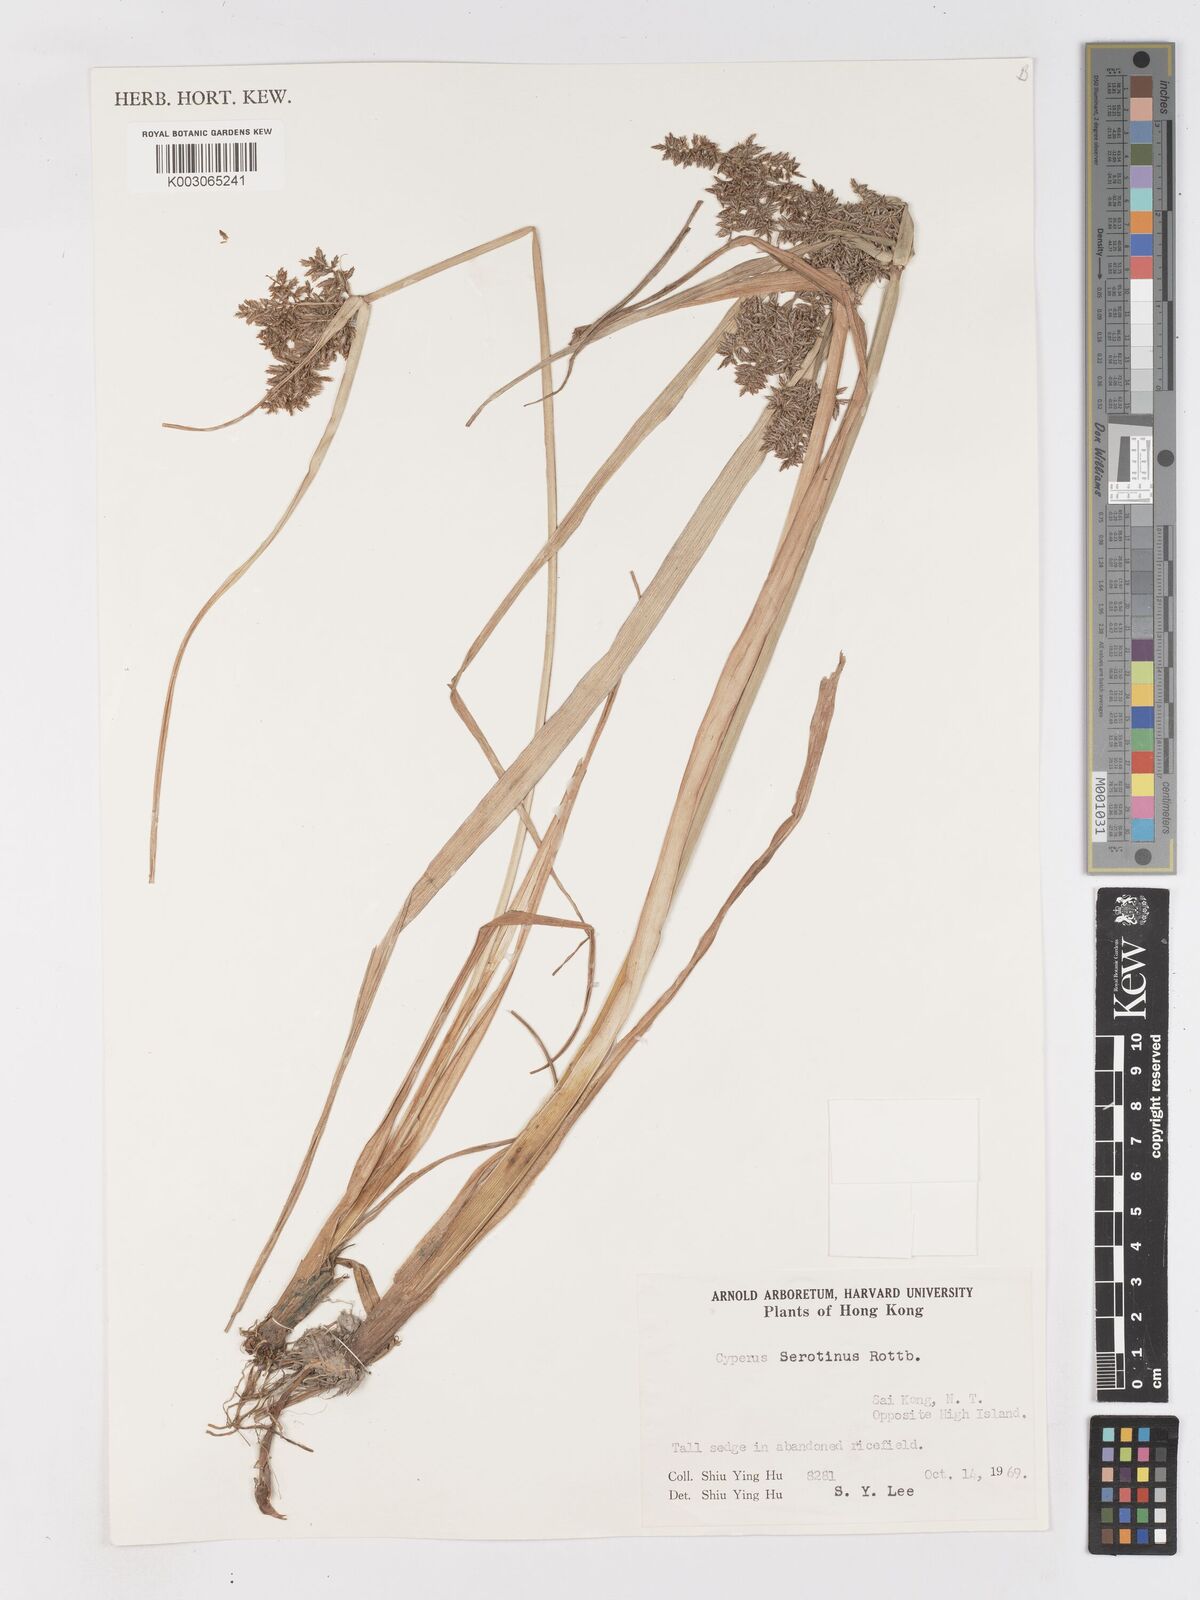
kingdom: Plantae
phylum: Tracheophyta
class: Liliopsida
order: Poales
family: Cyperaceae
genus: Cyperus
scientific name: Cyperus serotinus
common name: Tidalmarsh flatsedge
